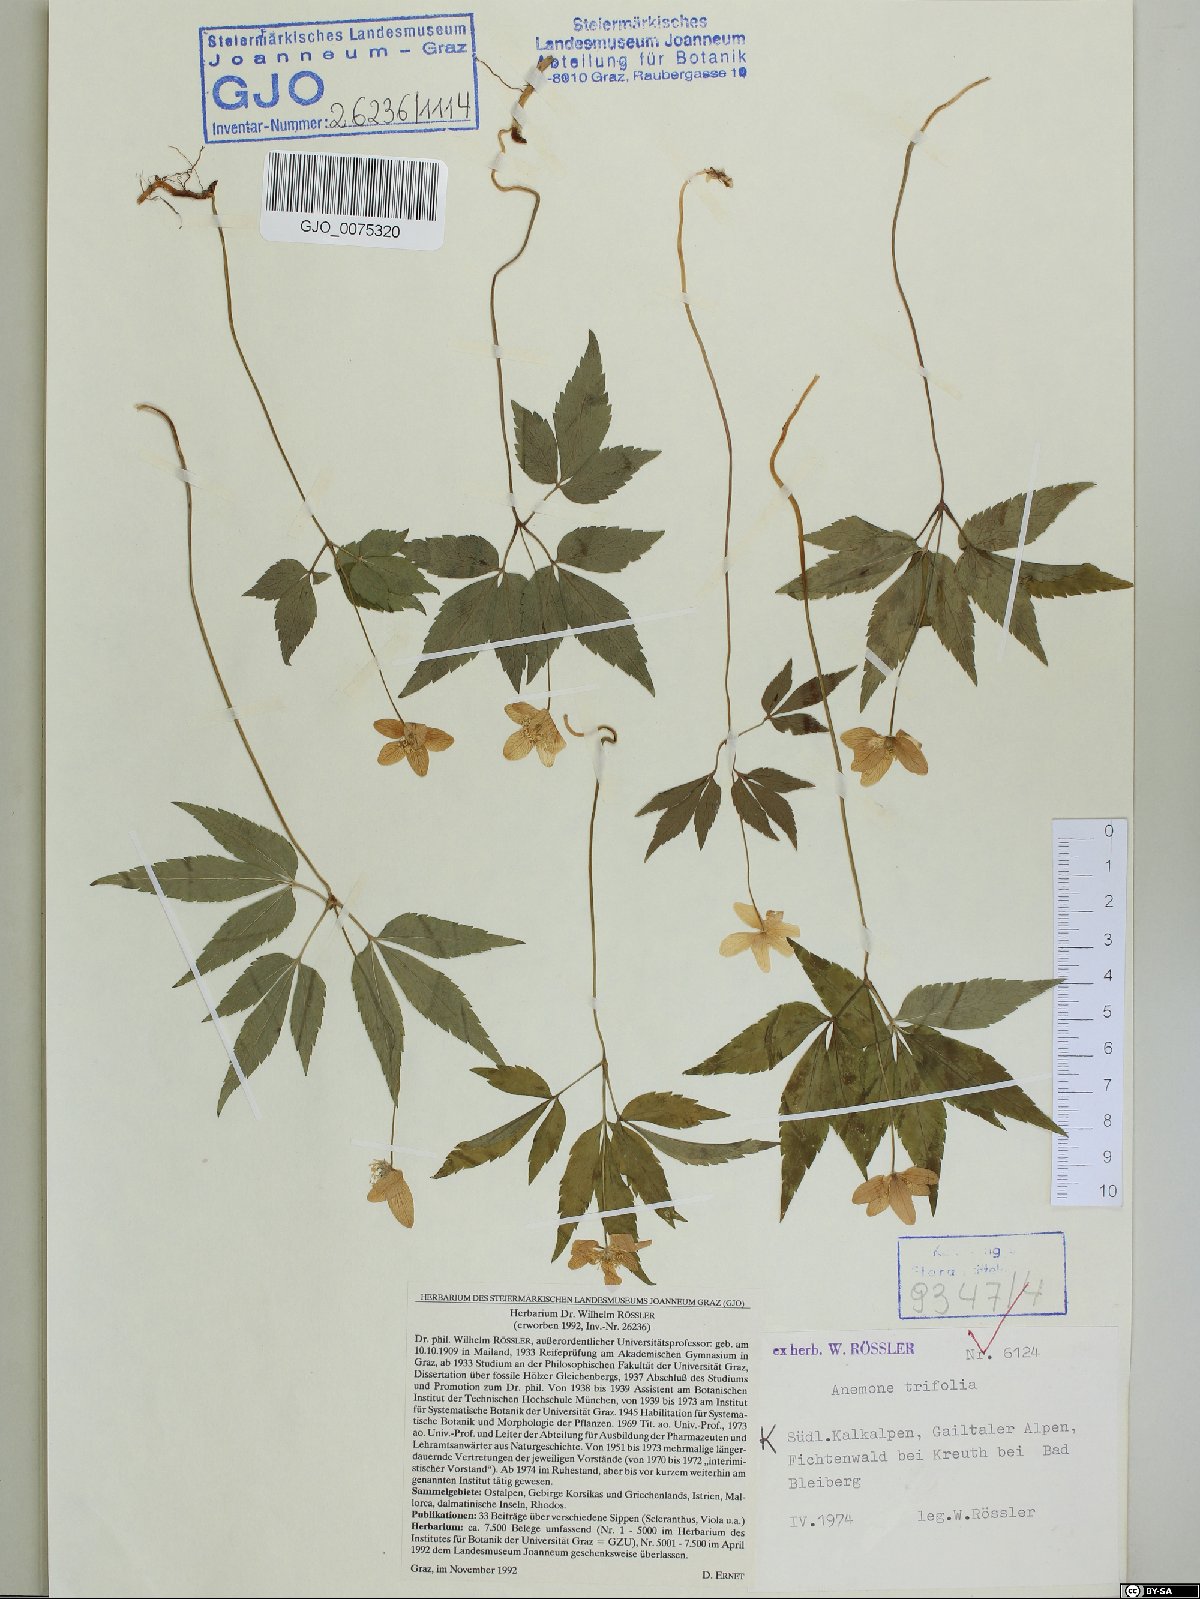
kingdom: Plantae
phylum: Tracheophyta
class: Magnoliopsida
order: Ranunculales
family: Ranunculaceae
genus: Anemone
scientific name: Anemone trifolia
